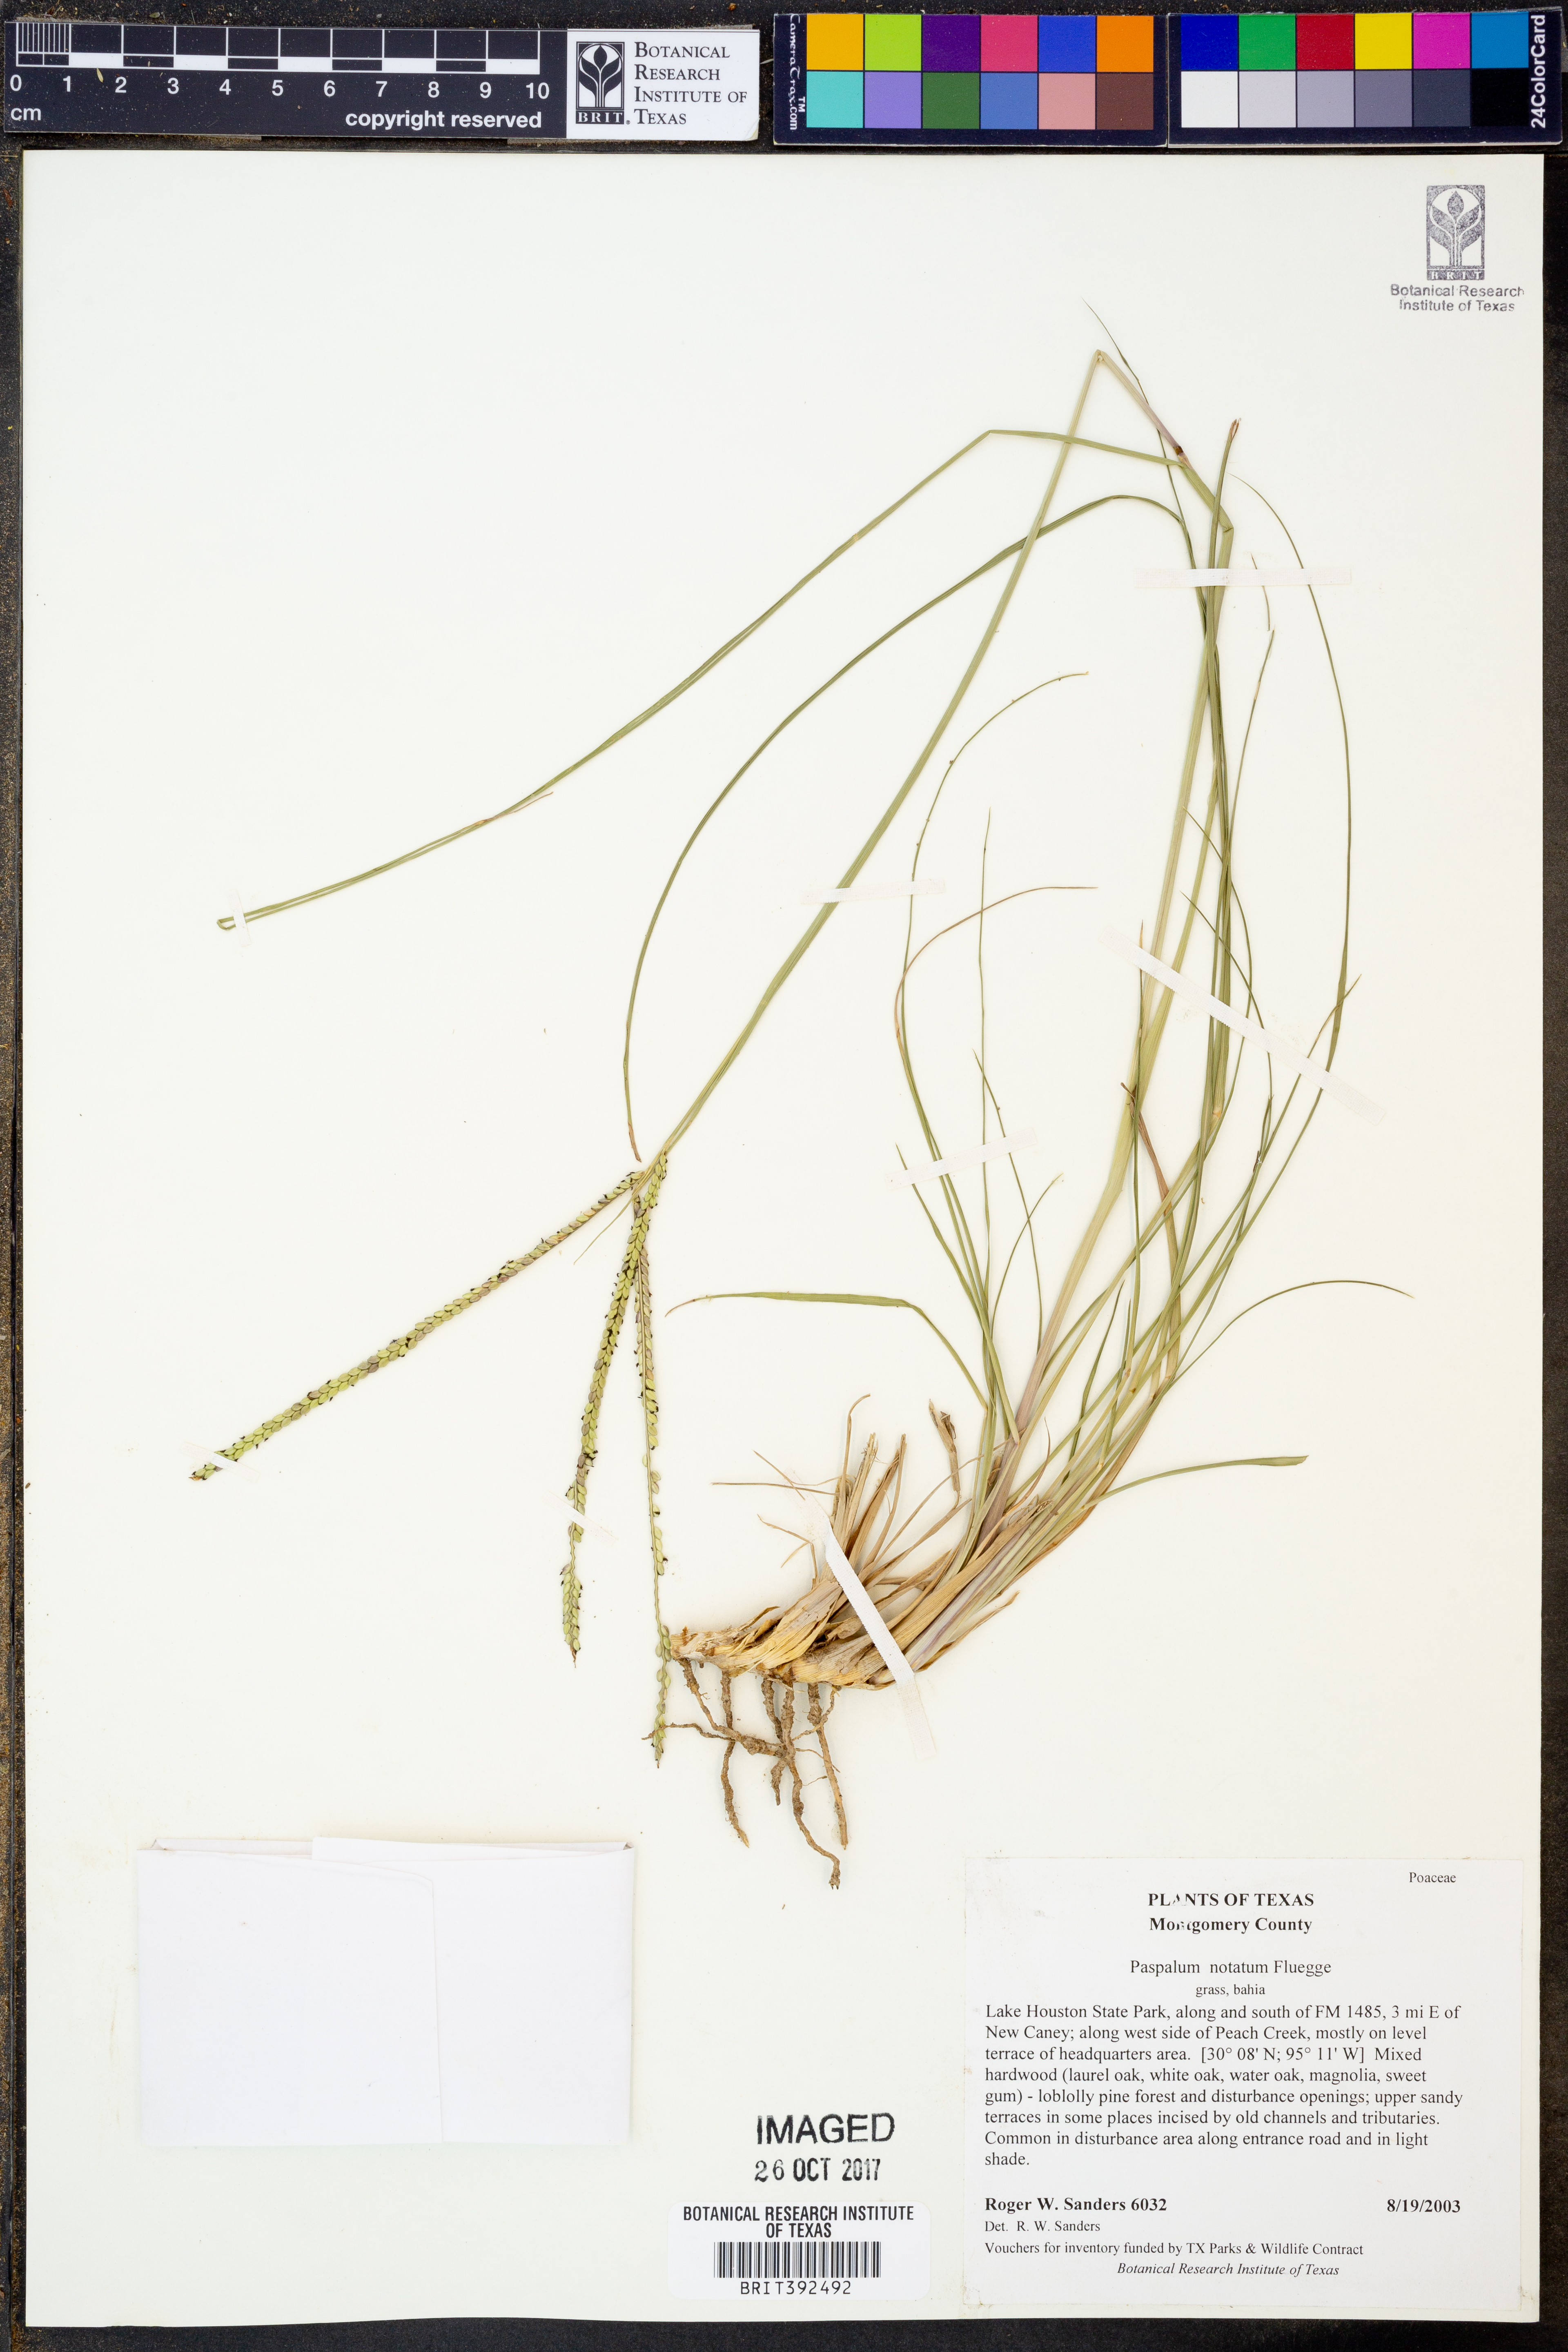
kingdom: Plantae
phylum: Tracheophyta
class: Liliopsida
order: Poales
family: Poaceae
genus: Paspalum
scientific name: Paspalum notatum
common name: Bahiagrass
